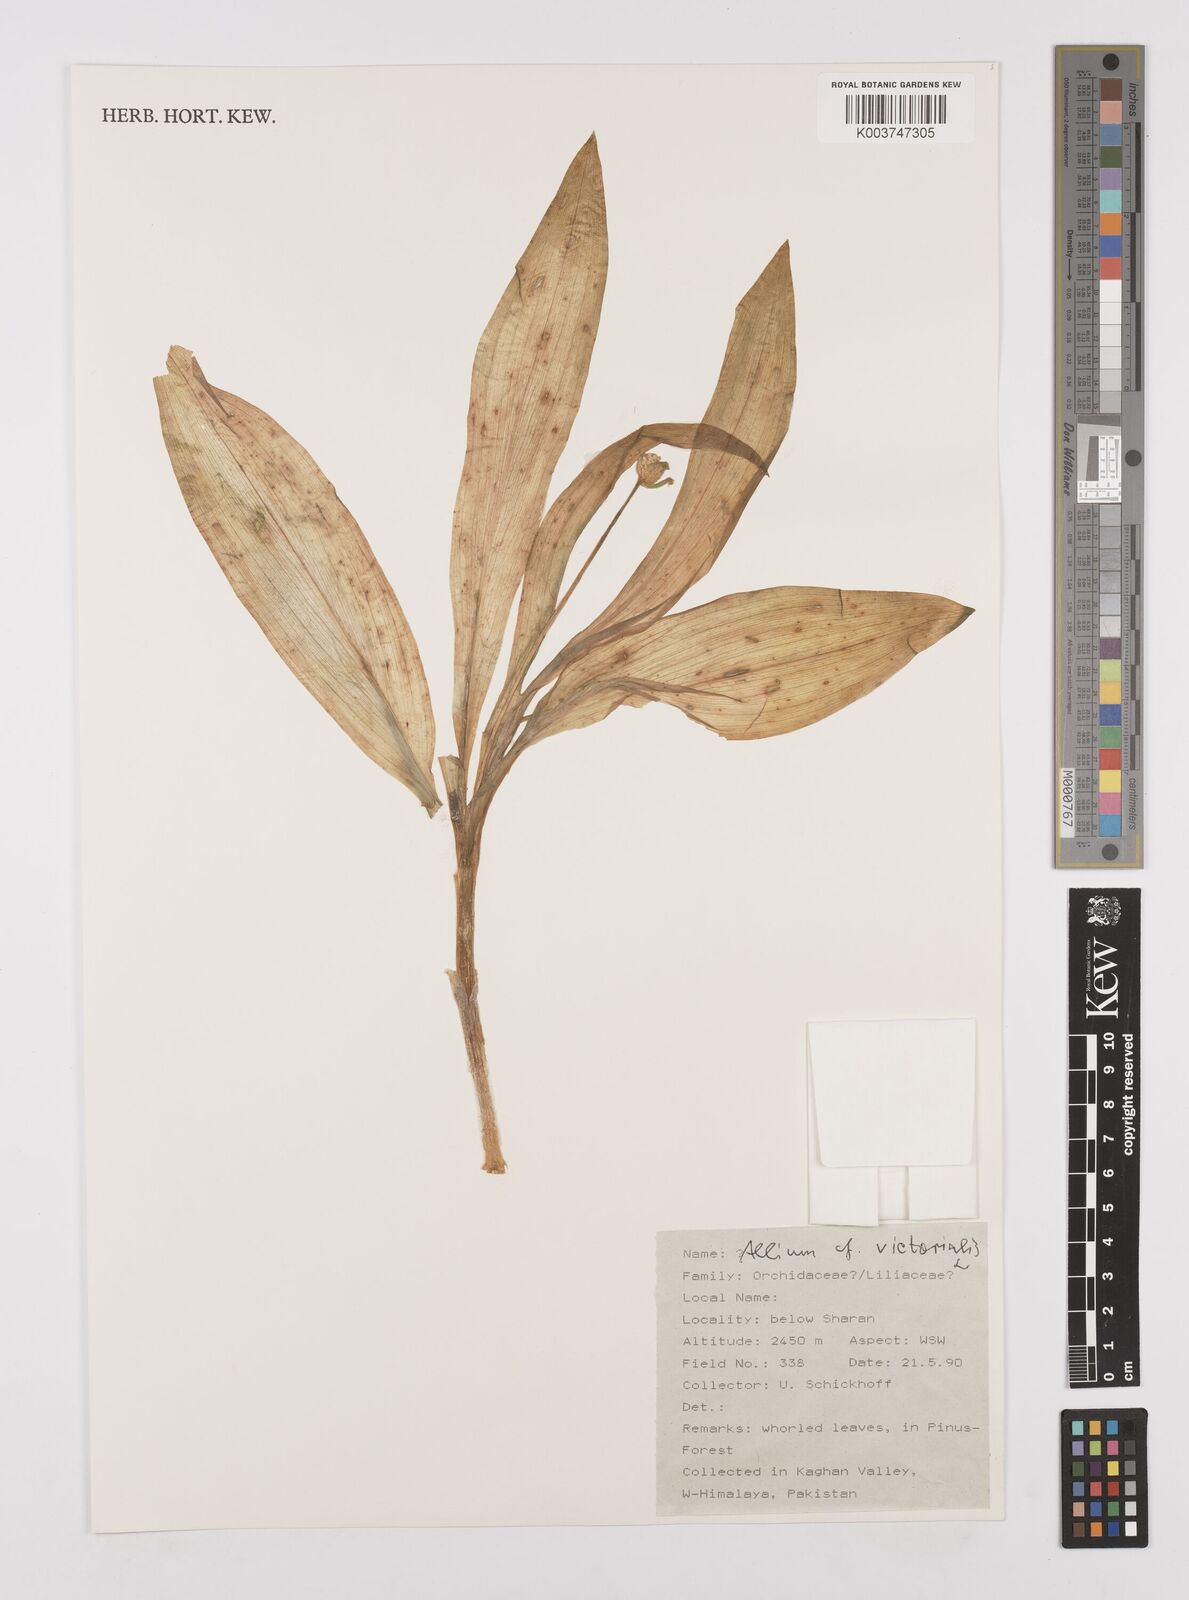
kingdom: Plantae
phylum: Tracheophyta
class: Liliopsida
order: Asparagales
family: Amaryllidaceae
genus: Allium
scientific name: Allium victorialis
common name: Alpine leek
